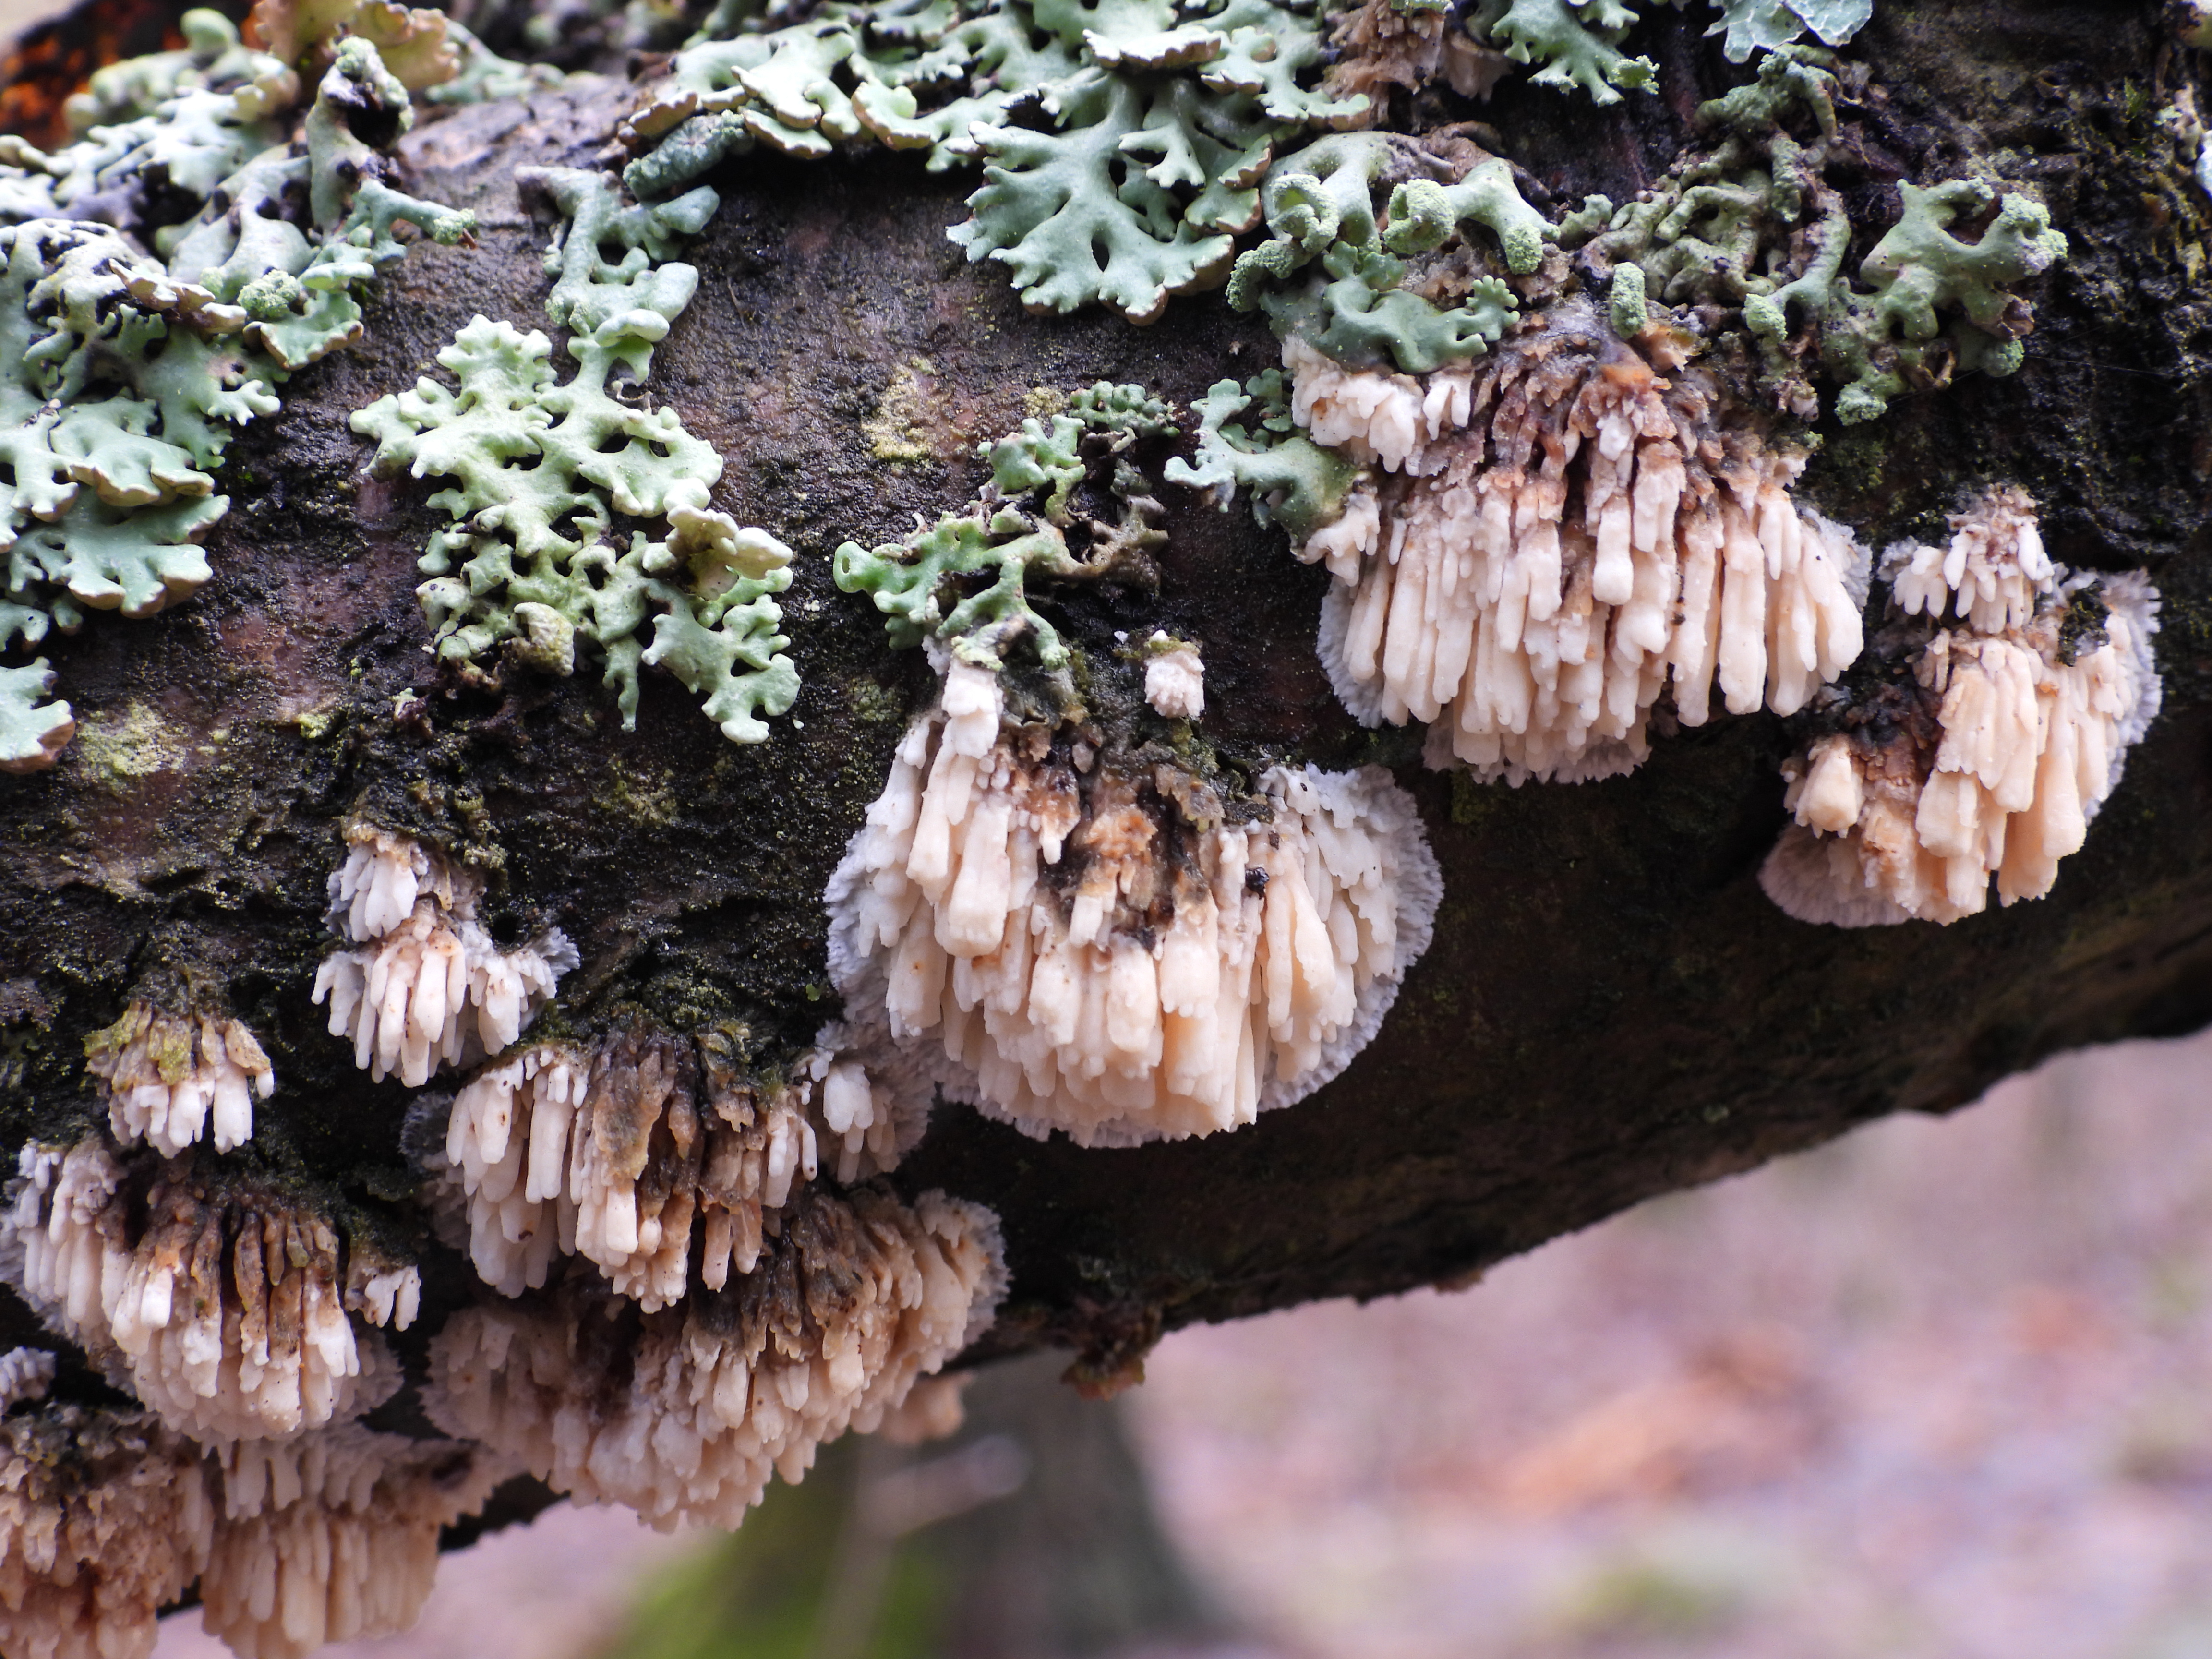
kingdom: Fungi
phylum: Basidiomycota
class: Agaricomycetes
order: Hymenochaetales
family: Schizoporaceae
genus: Xylodon
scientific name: Xylodon radula
